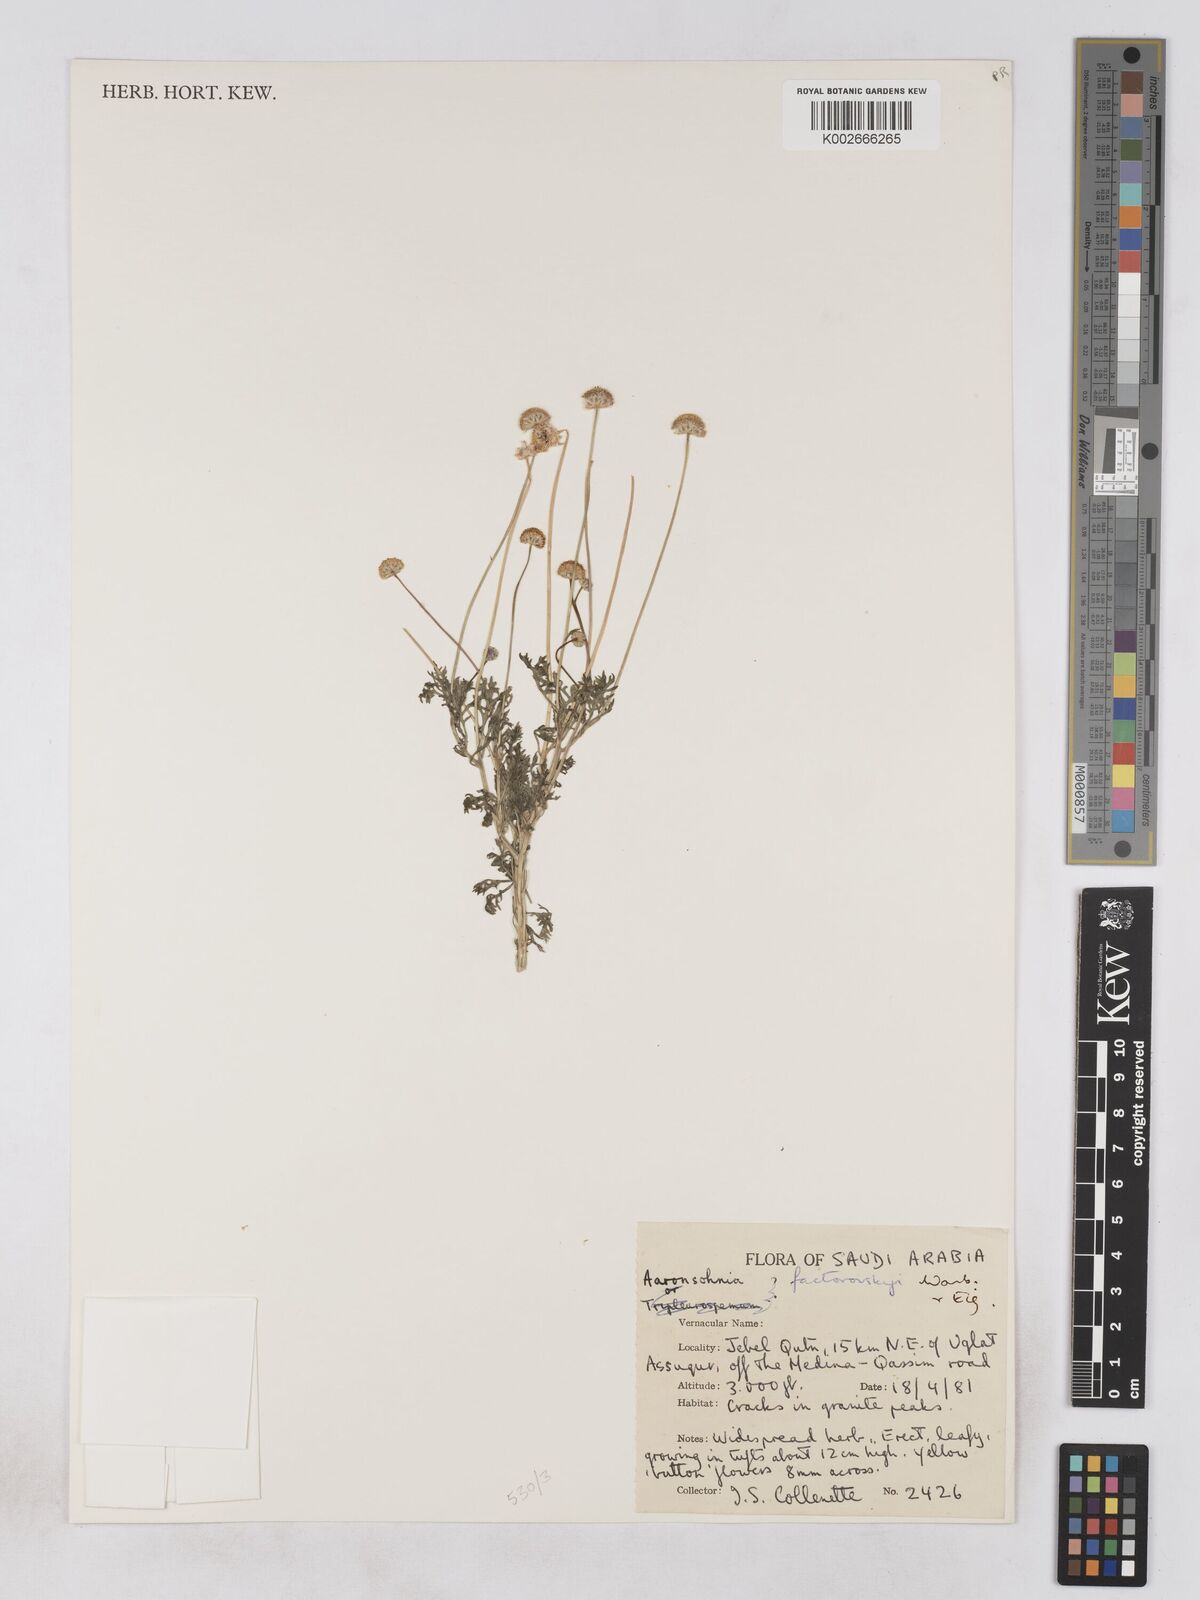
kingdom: Plantae
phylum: Tracheophyta
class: Magnoliopsida
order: Asterales
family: Asteraceae
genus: Otoglyphis
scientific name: Otoglyphis factorovskyi
